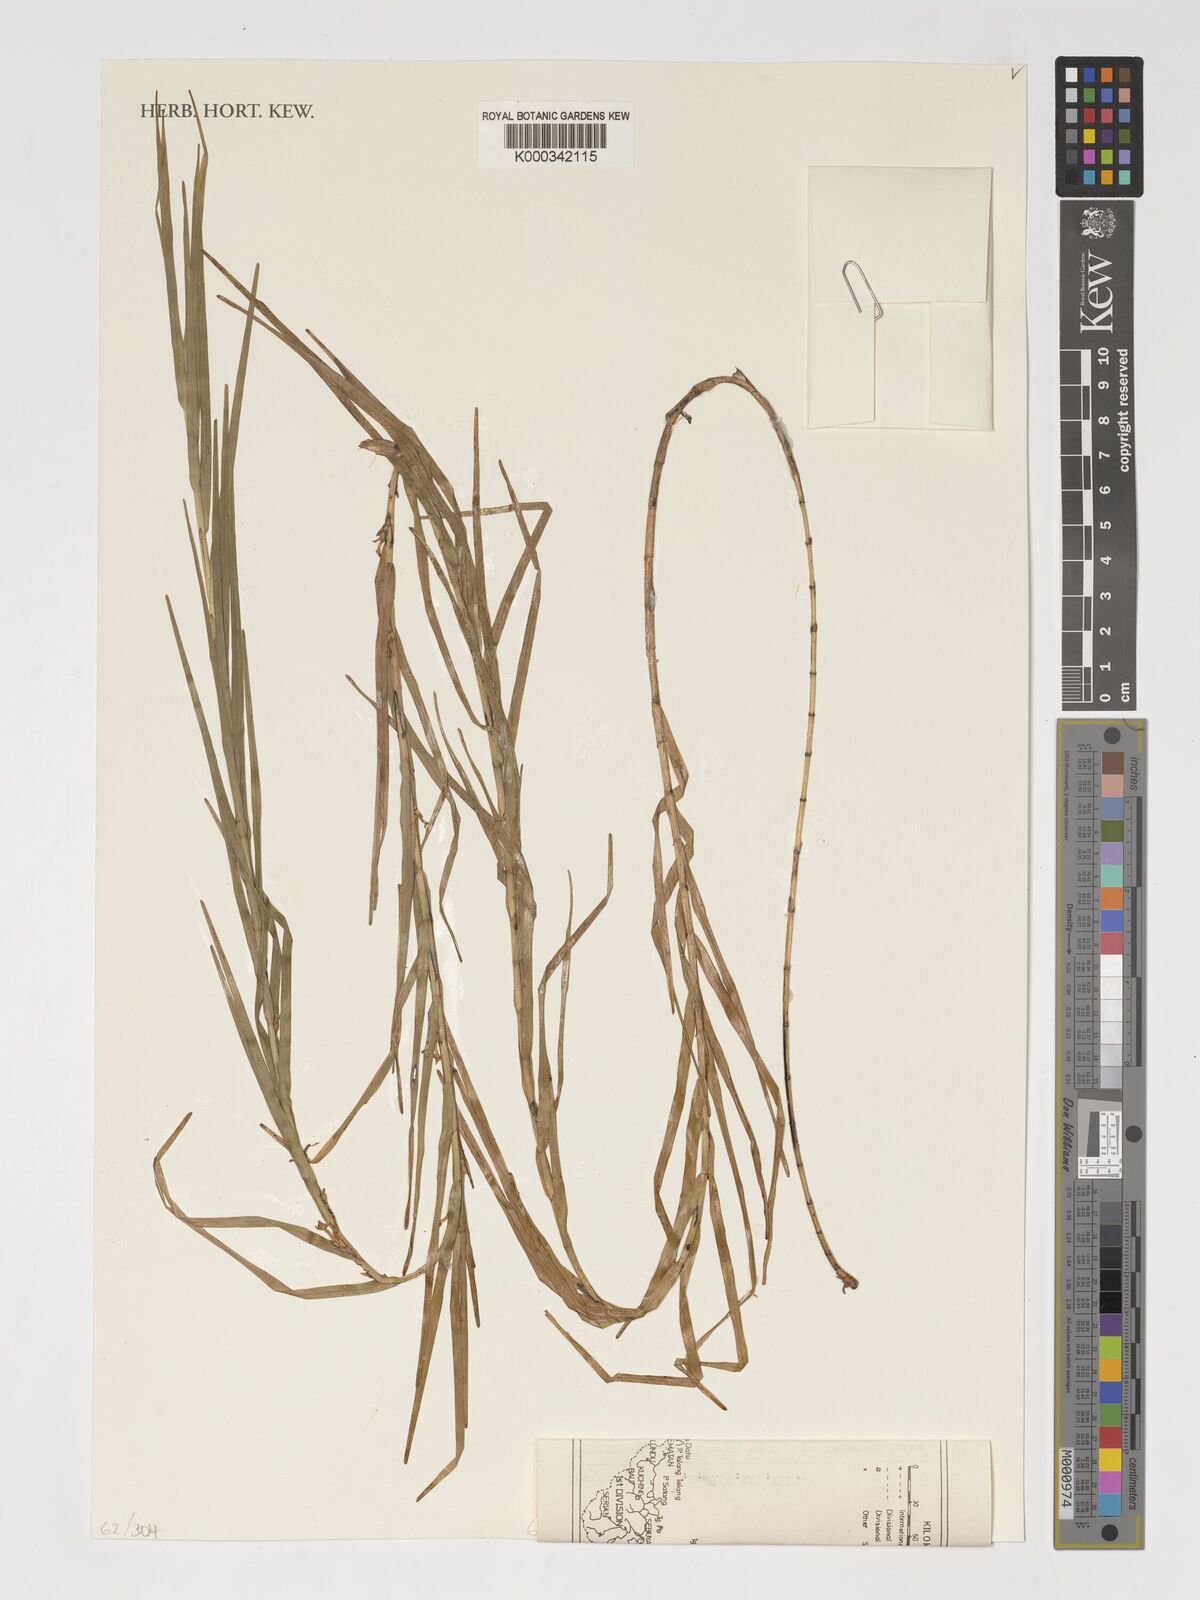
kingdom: Plantae
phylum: Tracheophyta
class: Liliopsida
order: Asparagales
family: Orchidaceae
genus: Agrostophyllum
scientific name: Agrostophyllum laterale
